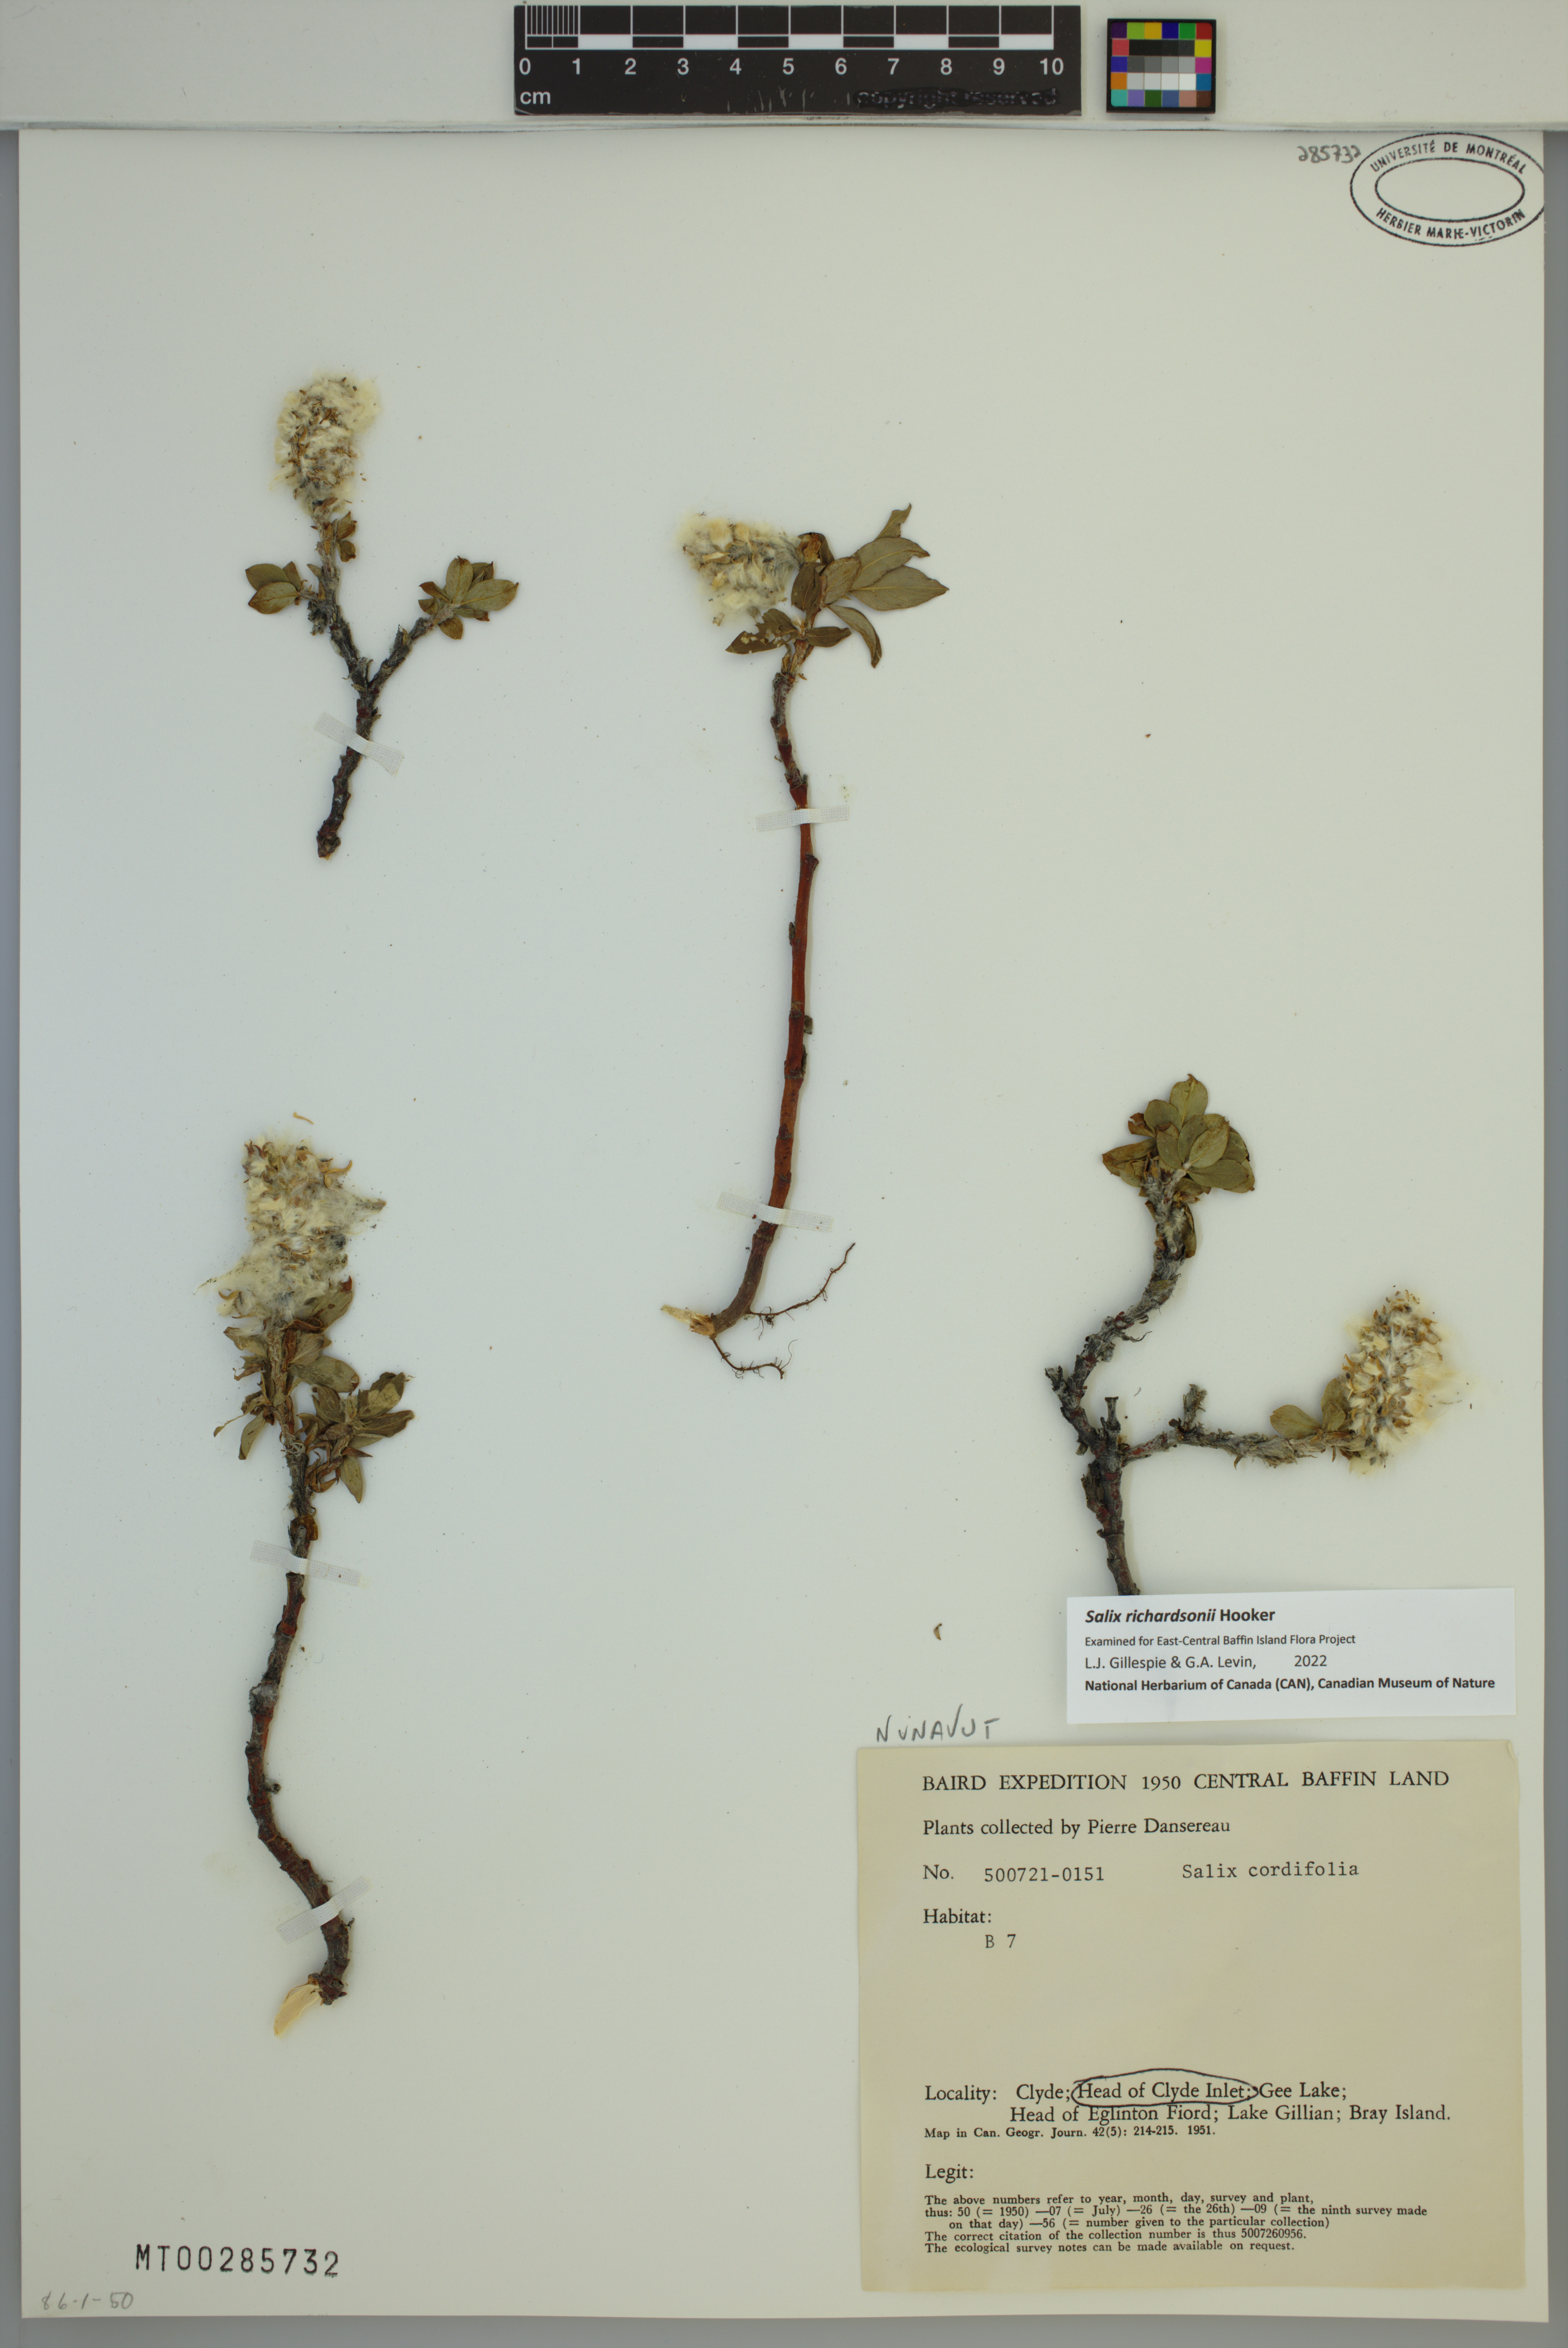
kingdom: Plantae
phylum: Tracheophyta
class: Magnoliopsida
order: Malpighiales
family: Salicaceae
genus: Salix
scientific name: Salix richardsonii
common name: Richardson’s willow
